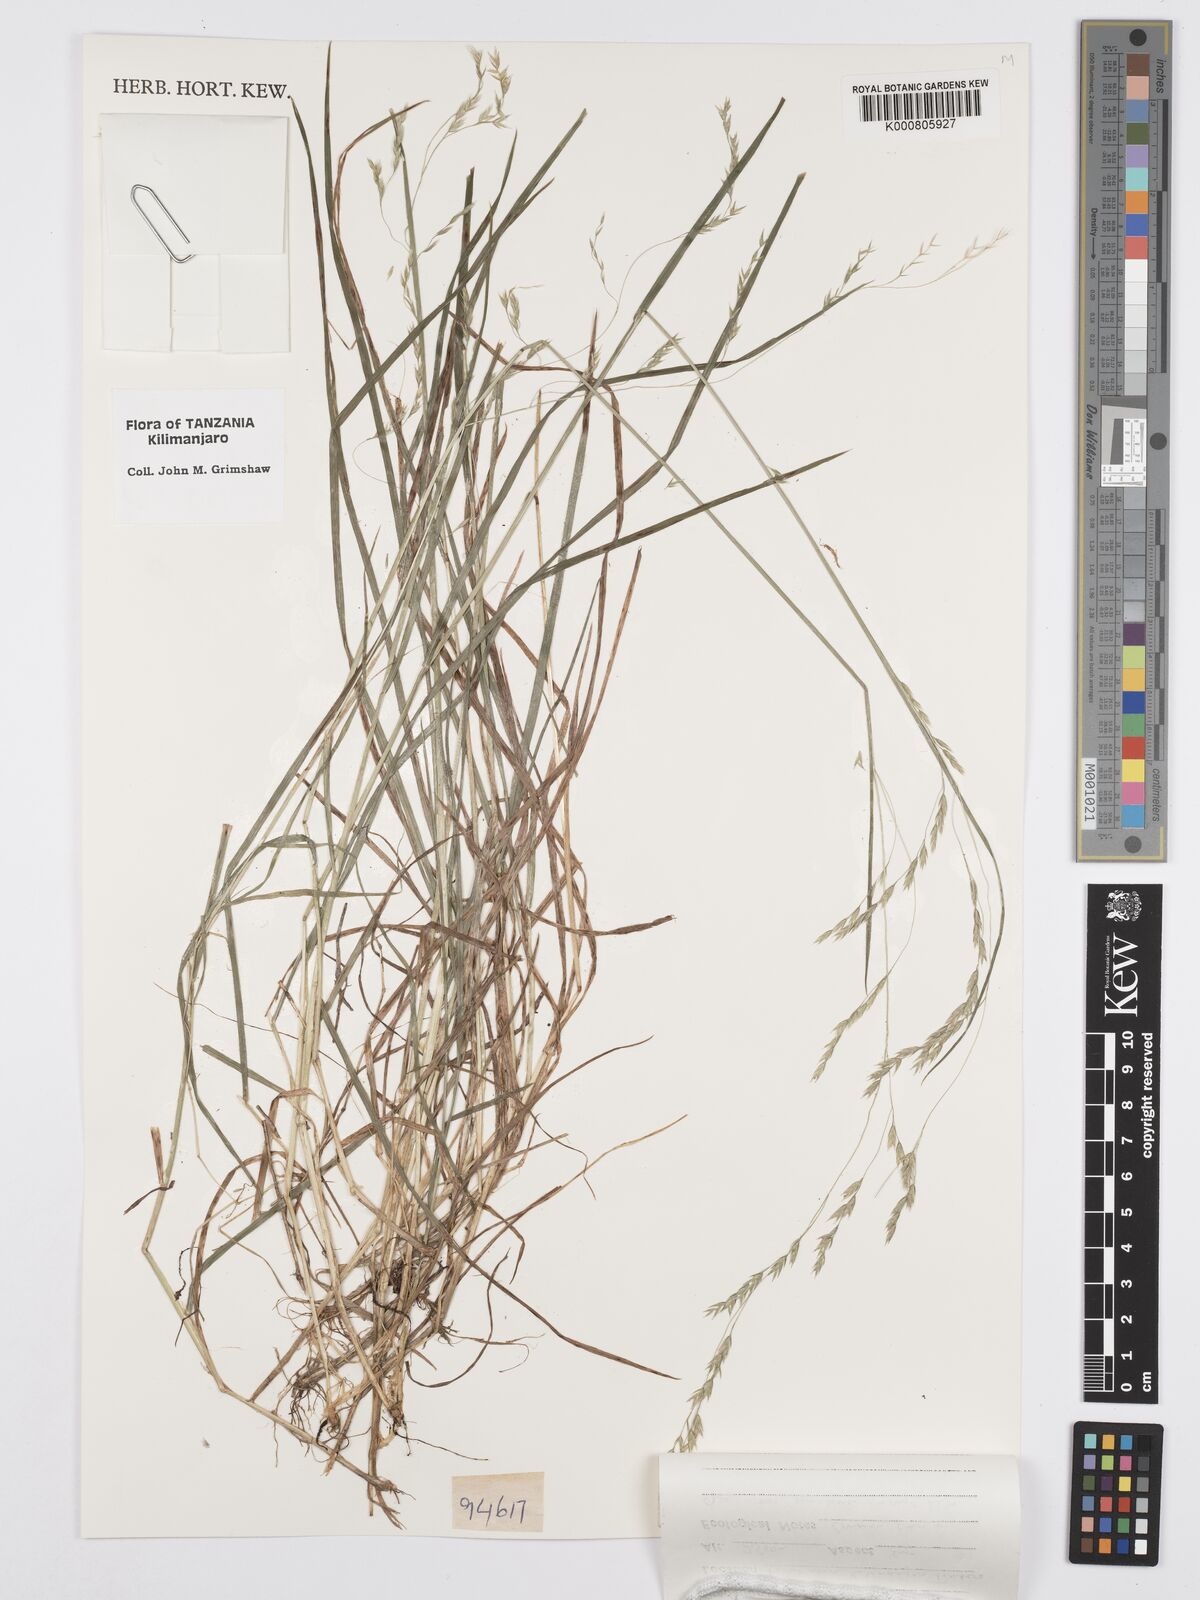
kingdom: Plantae
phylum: Tracheophyta
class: Liliopsida
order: Poales
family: Poaceae
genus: Poa
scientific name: Poa schimperiana
